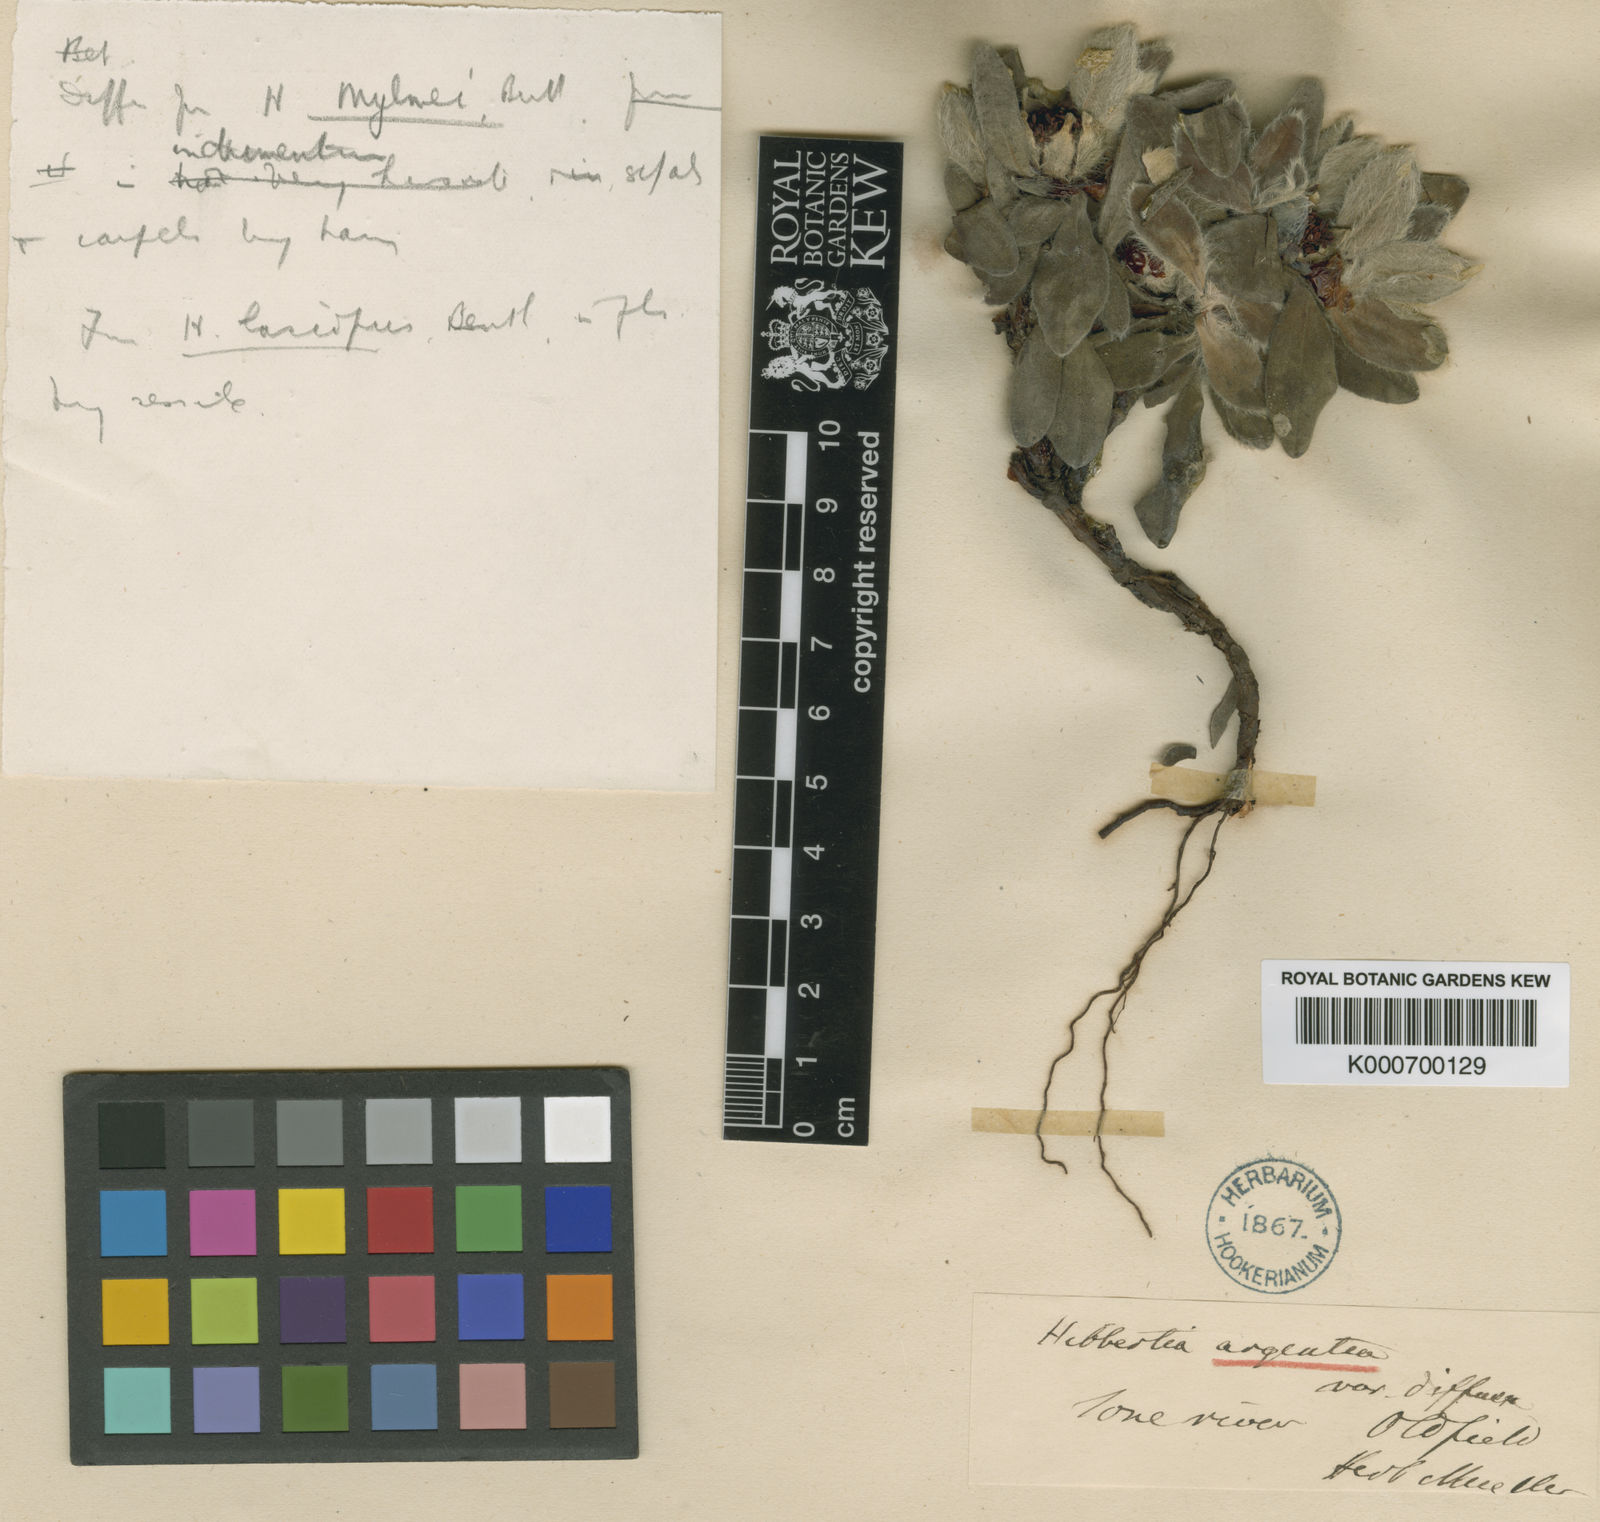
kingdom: Plantae
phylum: Tracheophyta
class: Magnoliopsida
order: Dilleniales
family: Dilleniaceae
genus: Hibbertia
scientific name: Hibbertia lasiopus
